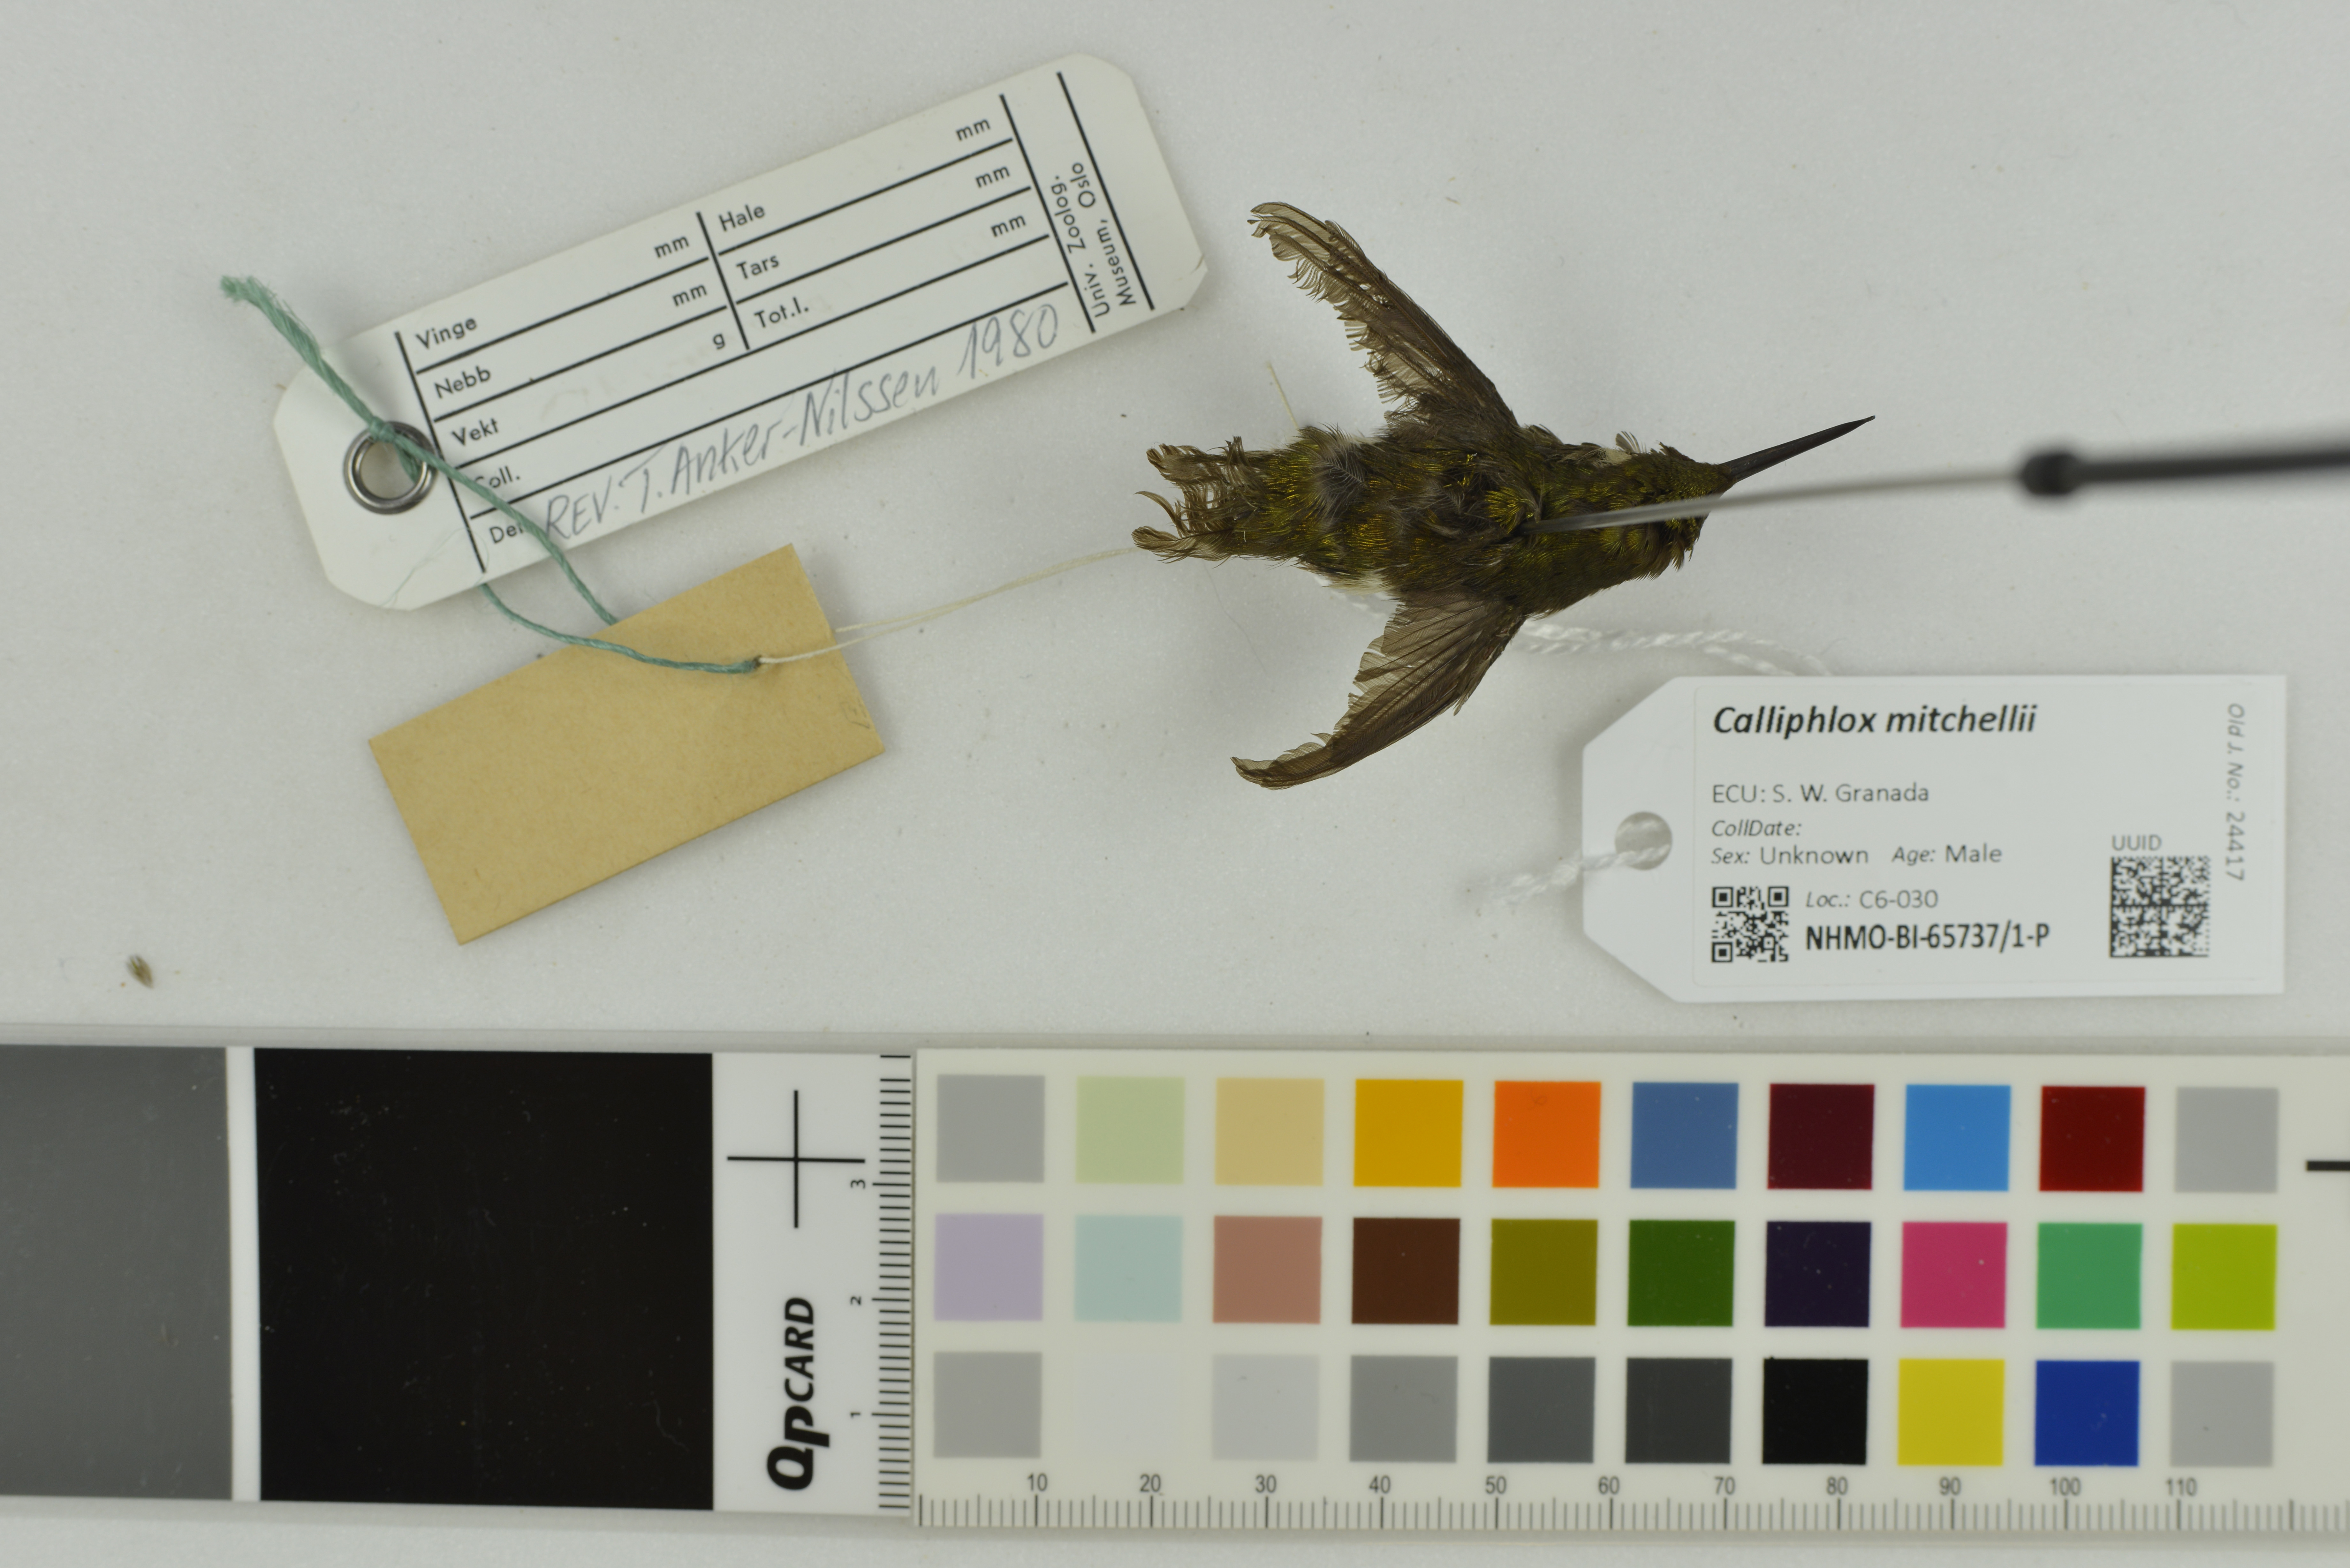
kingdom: Animalia
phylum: Chordata
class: Aves
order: Apodiformes
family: Trochilidae
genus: Calliphlox
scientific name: Calliphlox mitchellii
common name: Purple-throated woodstar
